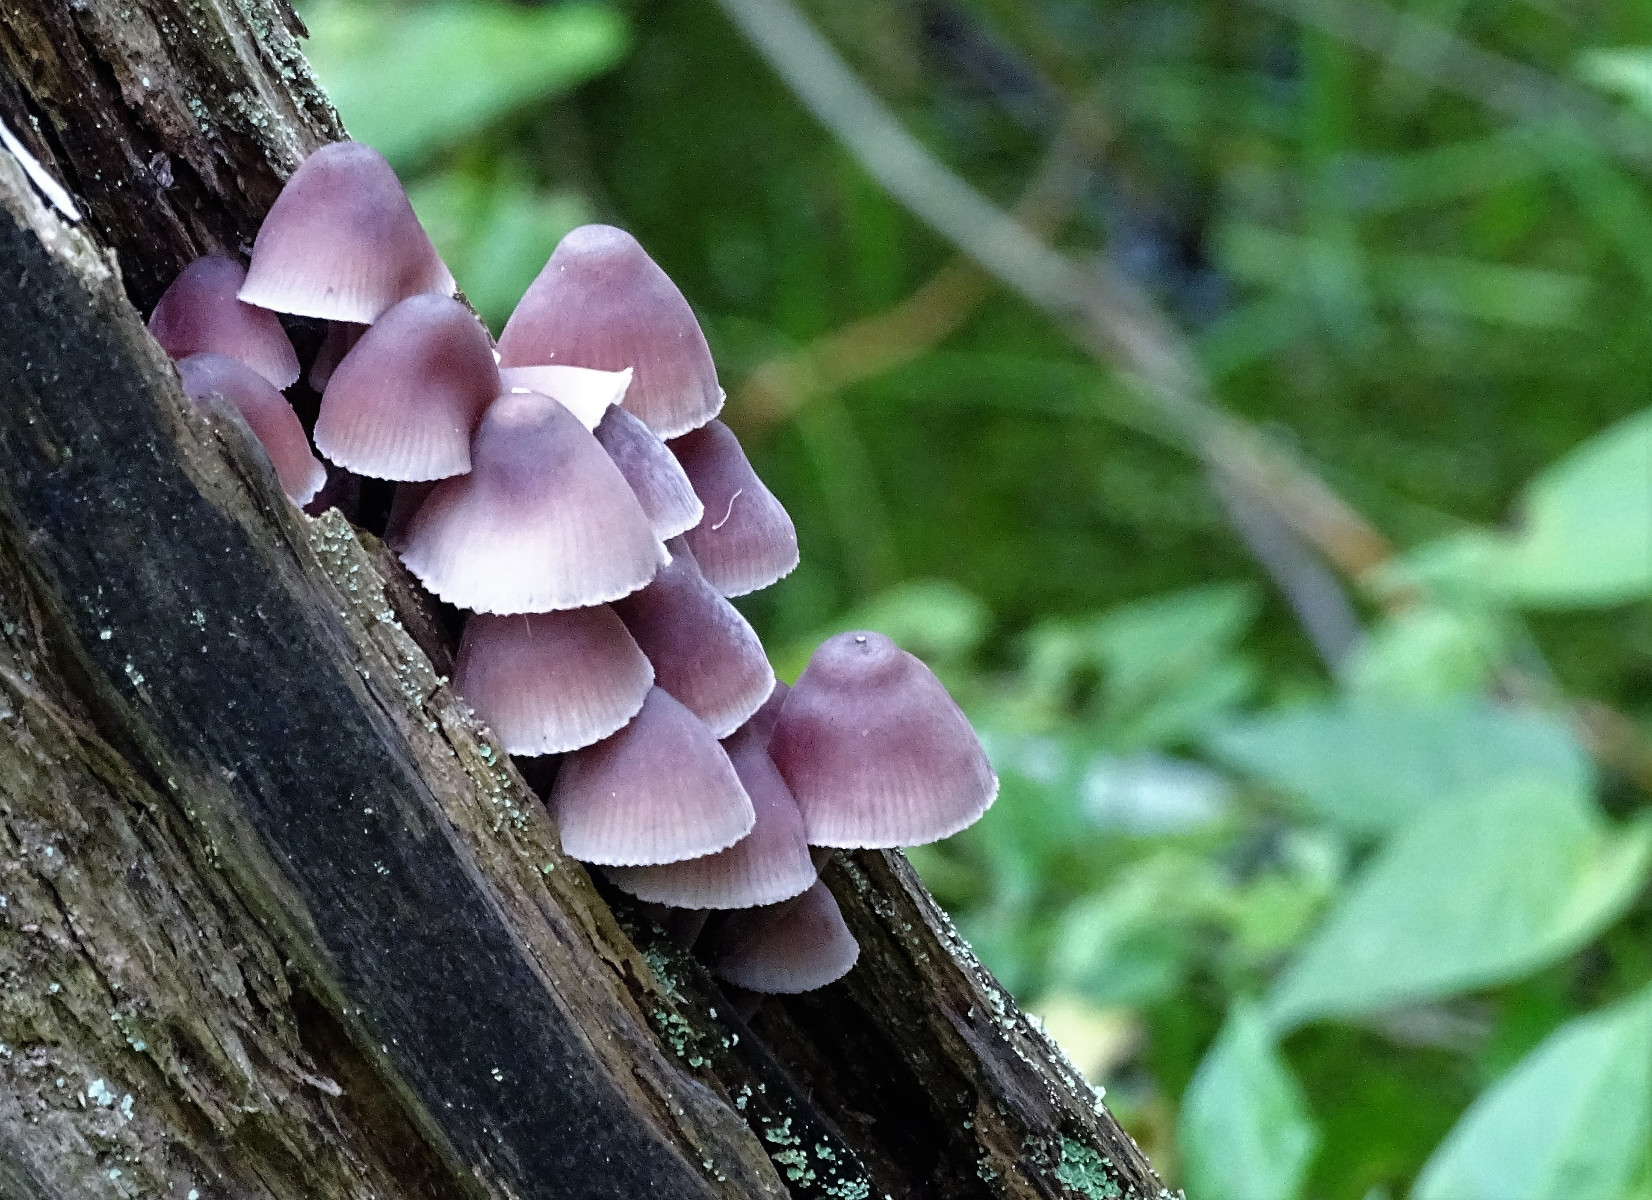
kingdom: Fungi
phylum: Basidiomycota
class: Agaricomycetes
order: Agaricales
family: Mycenaceae
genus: Mycena
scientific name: Mycena haematopus
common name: blødende huesvamp
